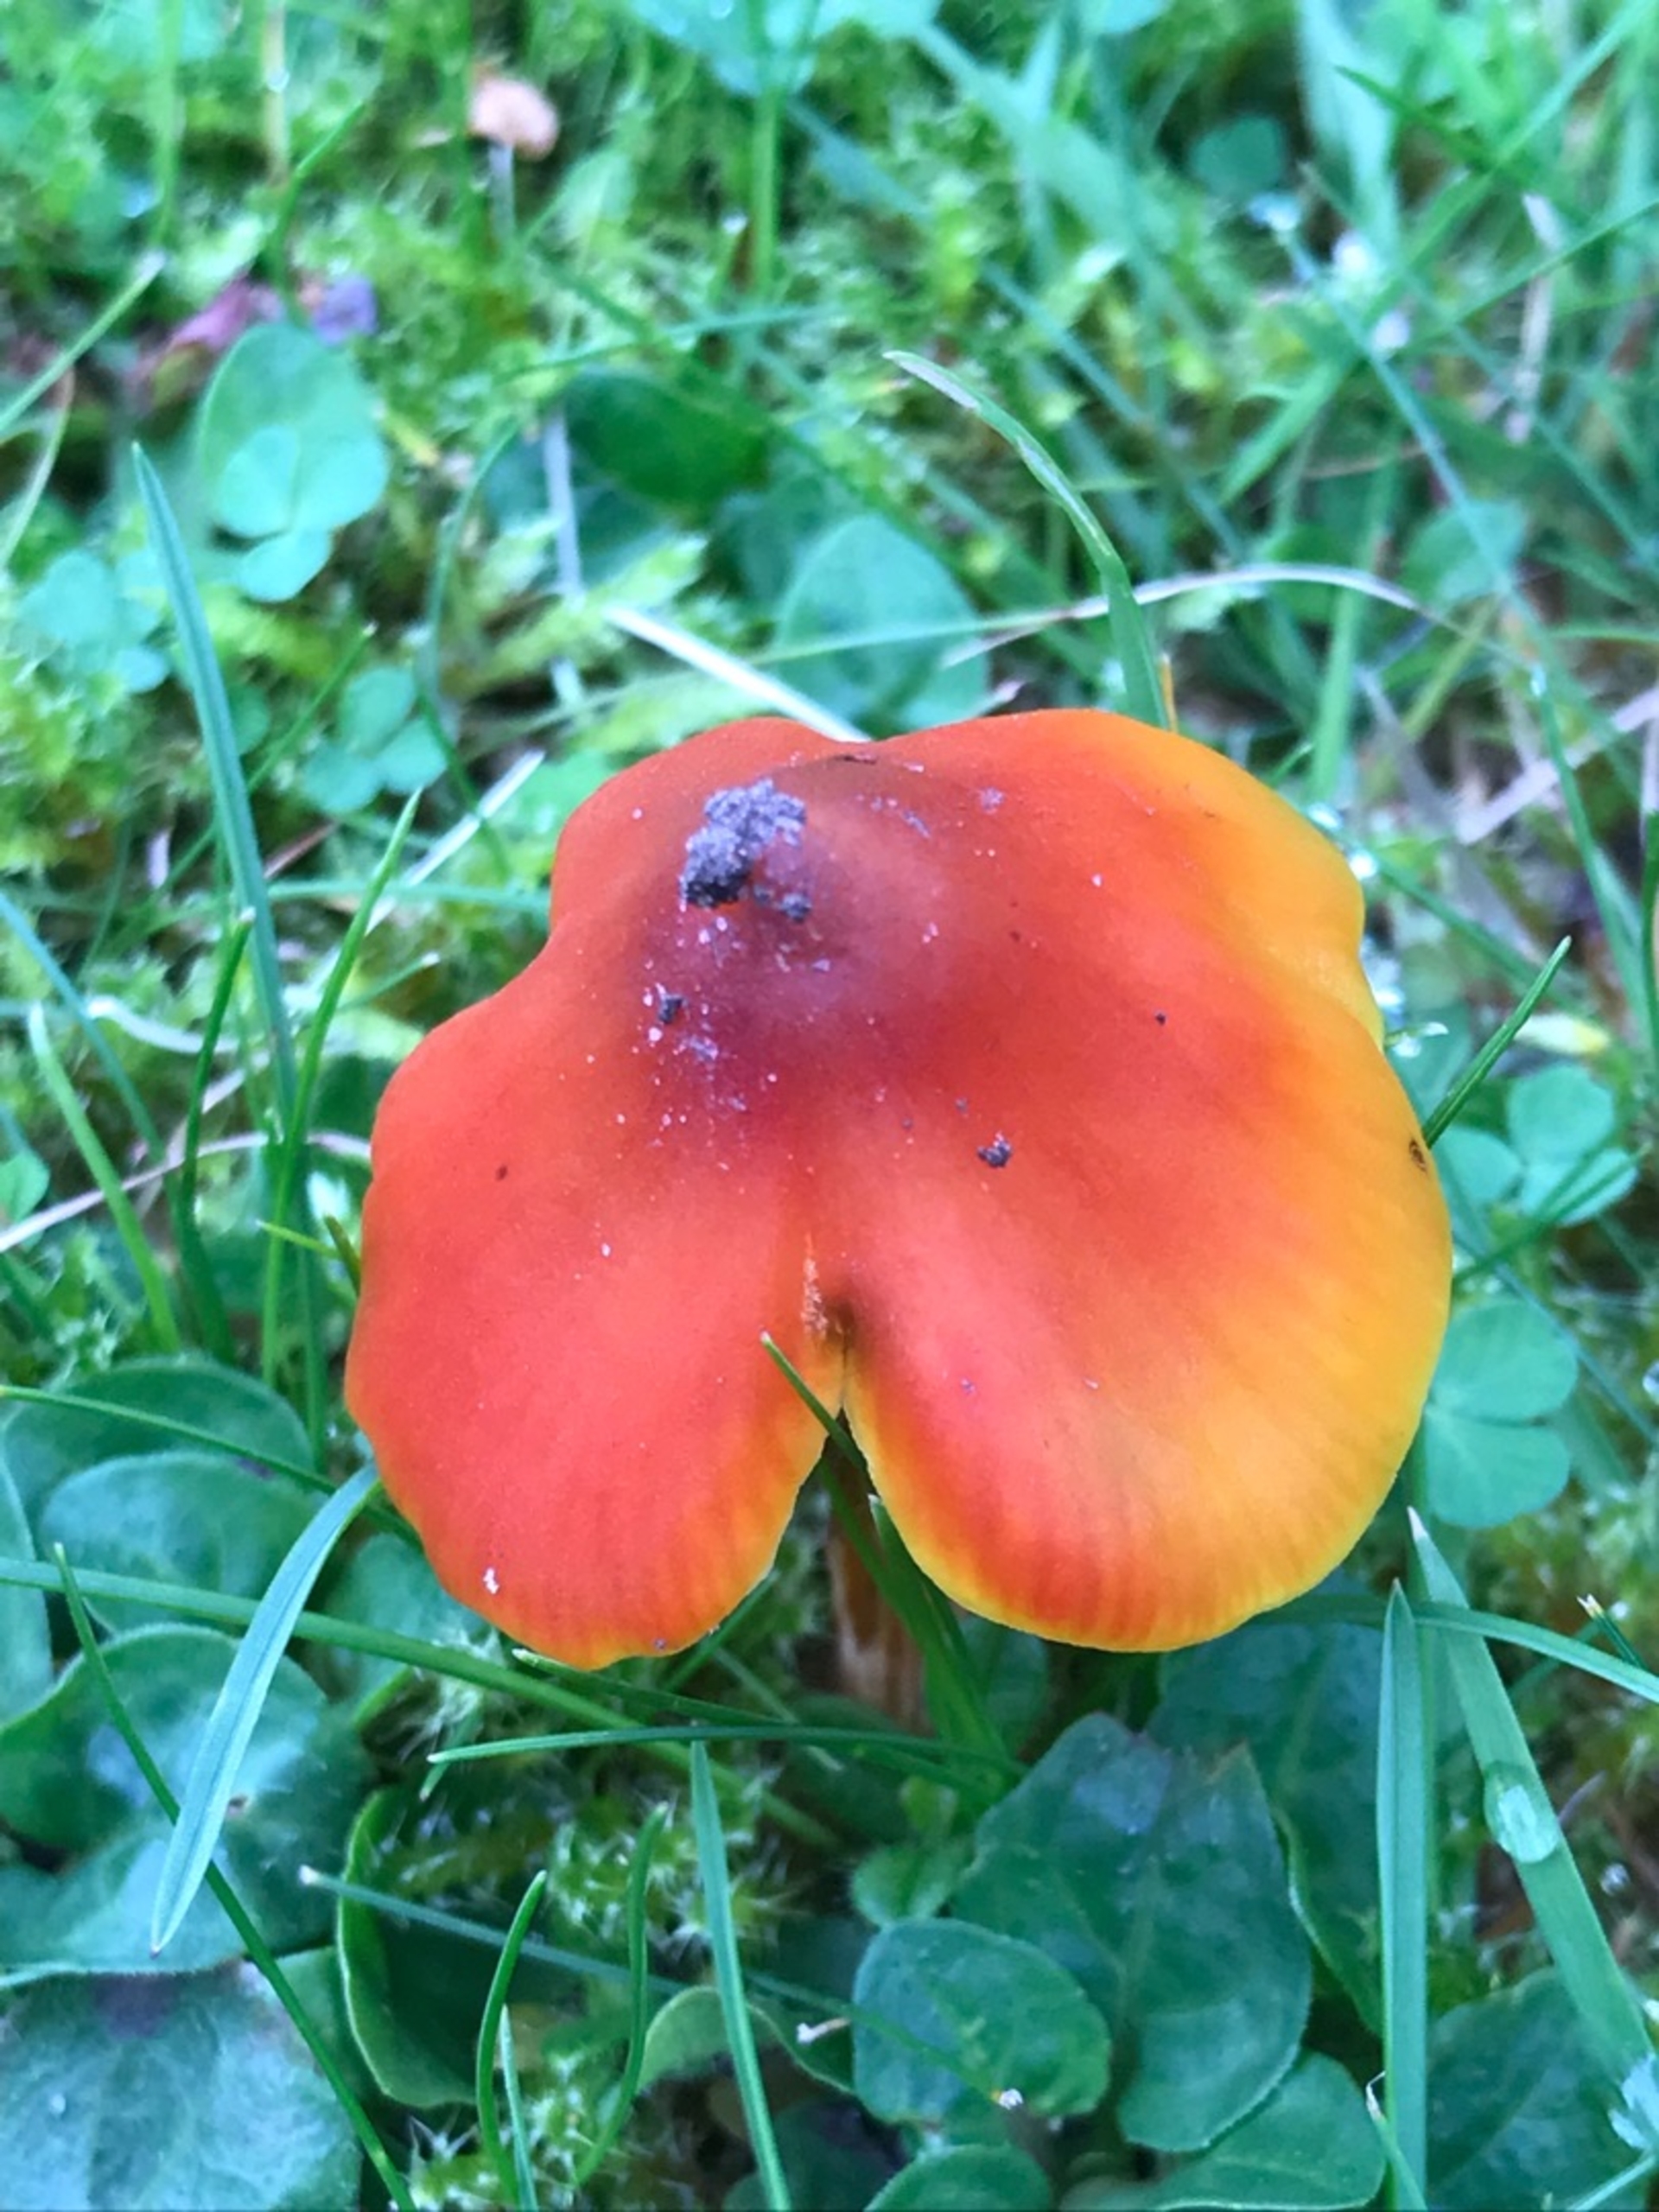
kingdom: Fungi
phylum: Basidiomycota
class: Agaricomycetes
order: Agaricales
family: Hygrophoraceae
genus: Hygrocybe
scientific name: Hygrocybe conica
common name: Kegle-vokshat (varietet
